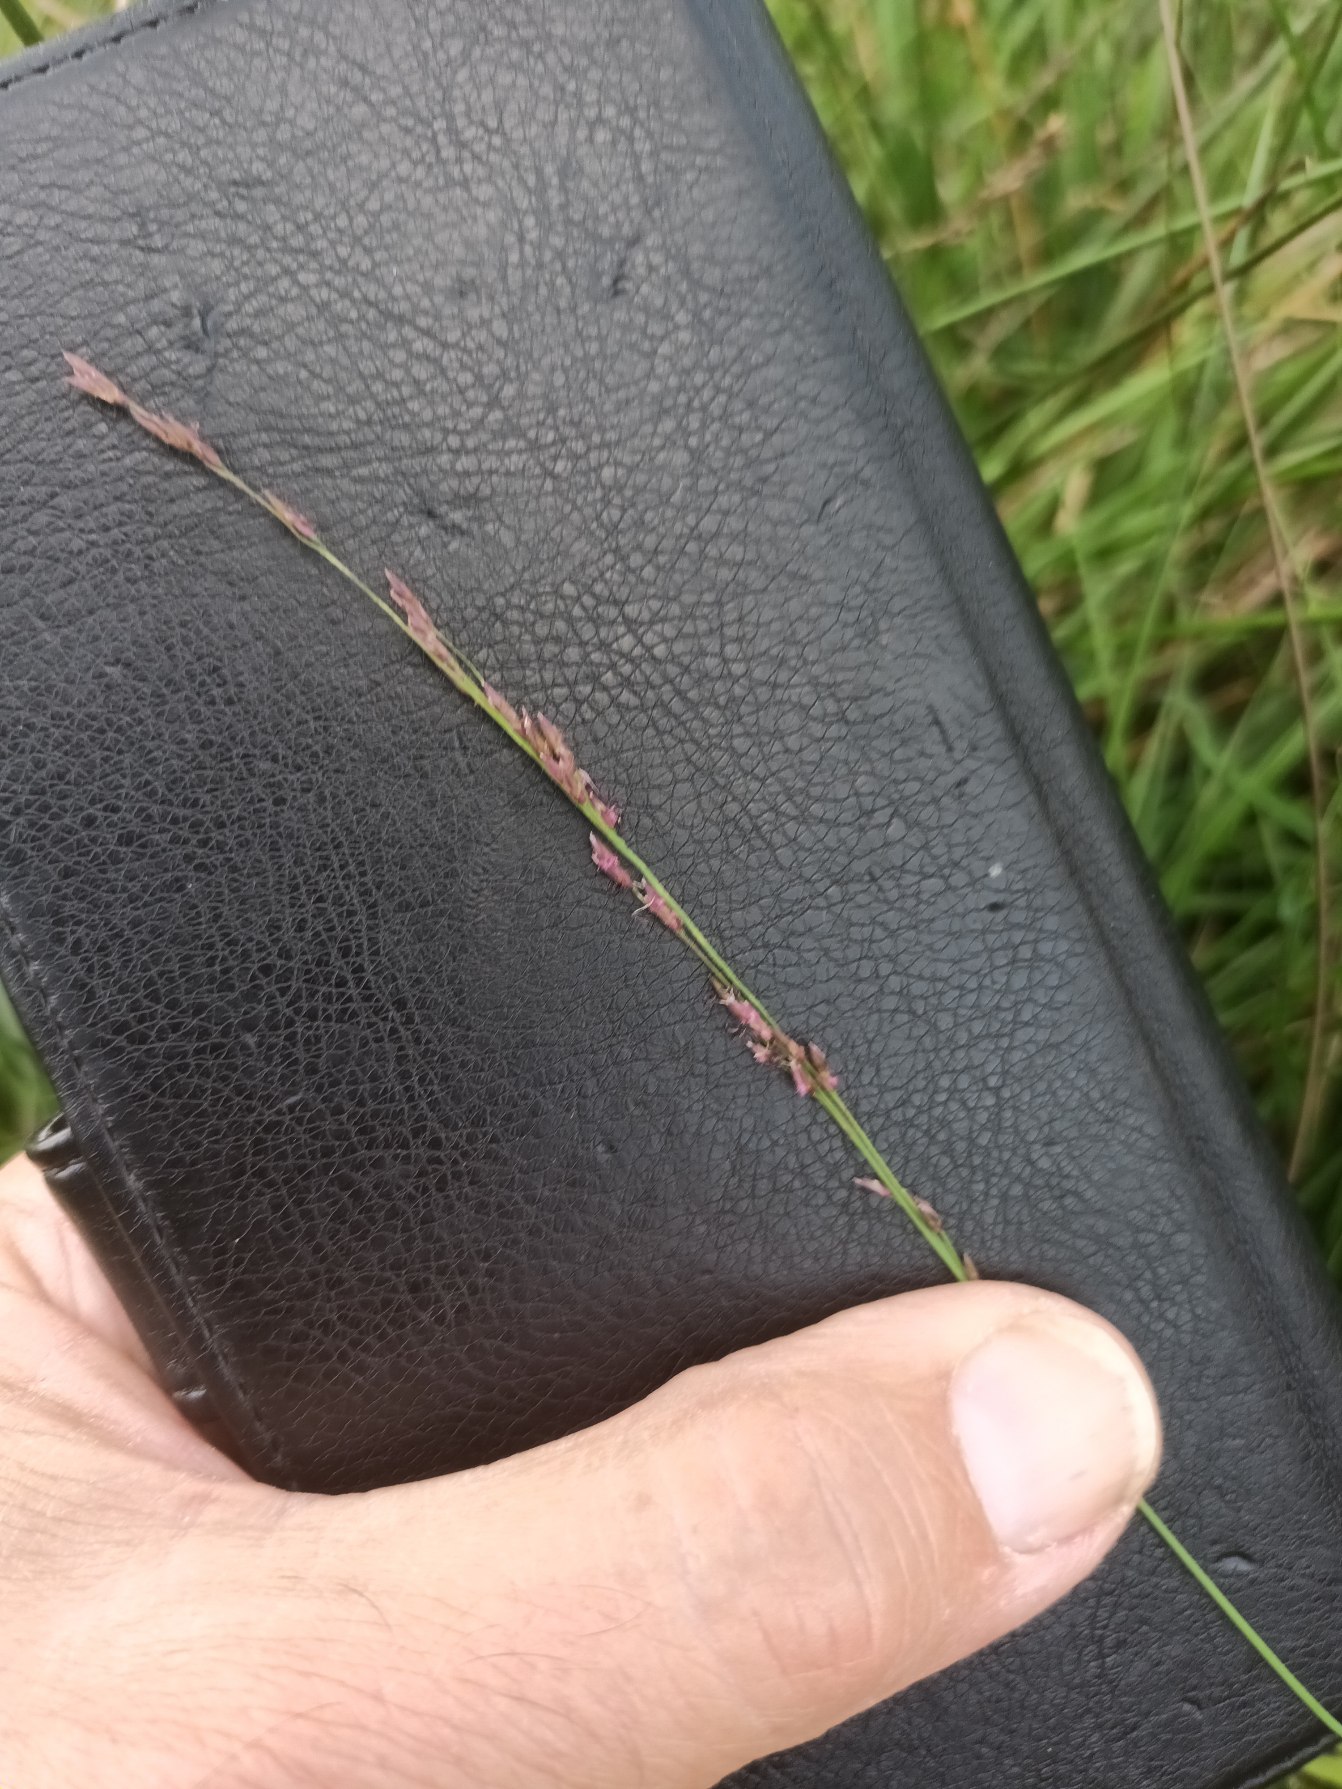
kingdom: Plantae
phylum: Tracheophyta
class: Liliopsida
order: Poales
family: Poaceae
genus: Molinia
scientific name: Molinia caerulea
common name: Blåtop
